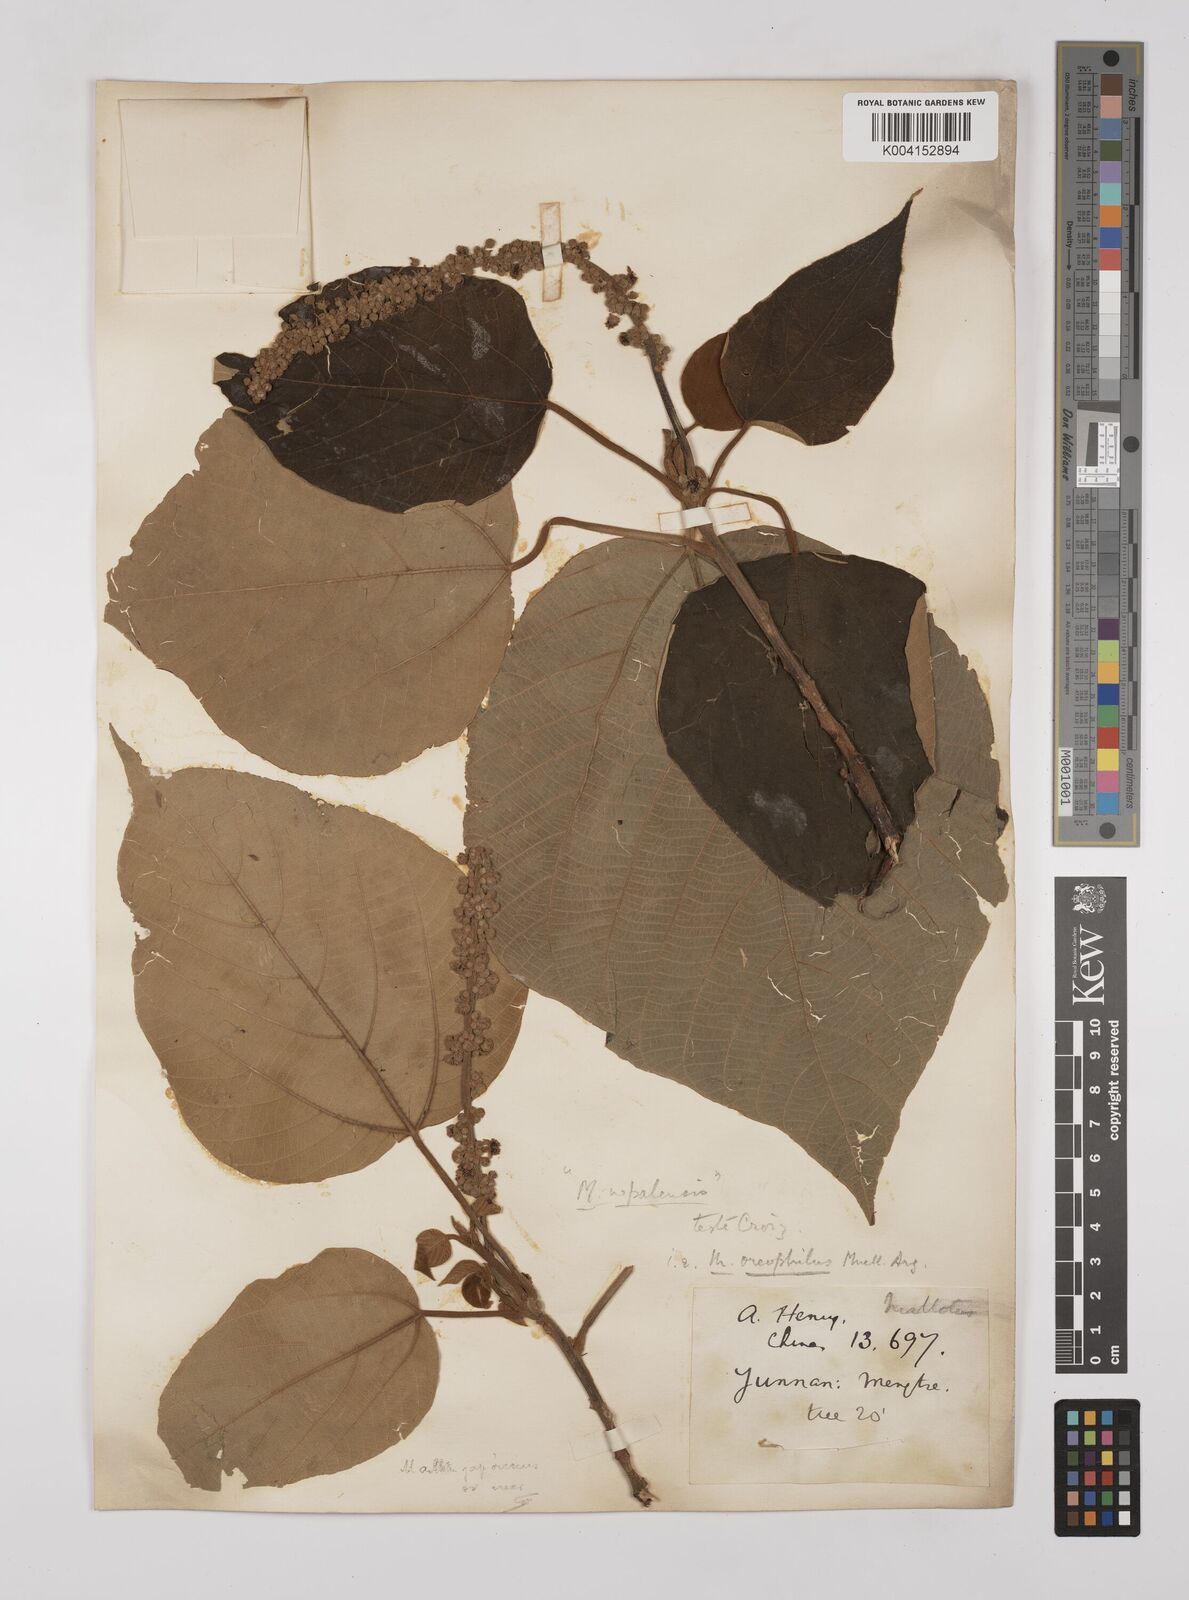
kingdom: Plantae
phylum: Tracheophyta
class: Magnoliopsida
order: Malpighiales
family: Euphorbiaceae
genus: Mallotus
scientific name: Mallotus oreophilus
